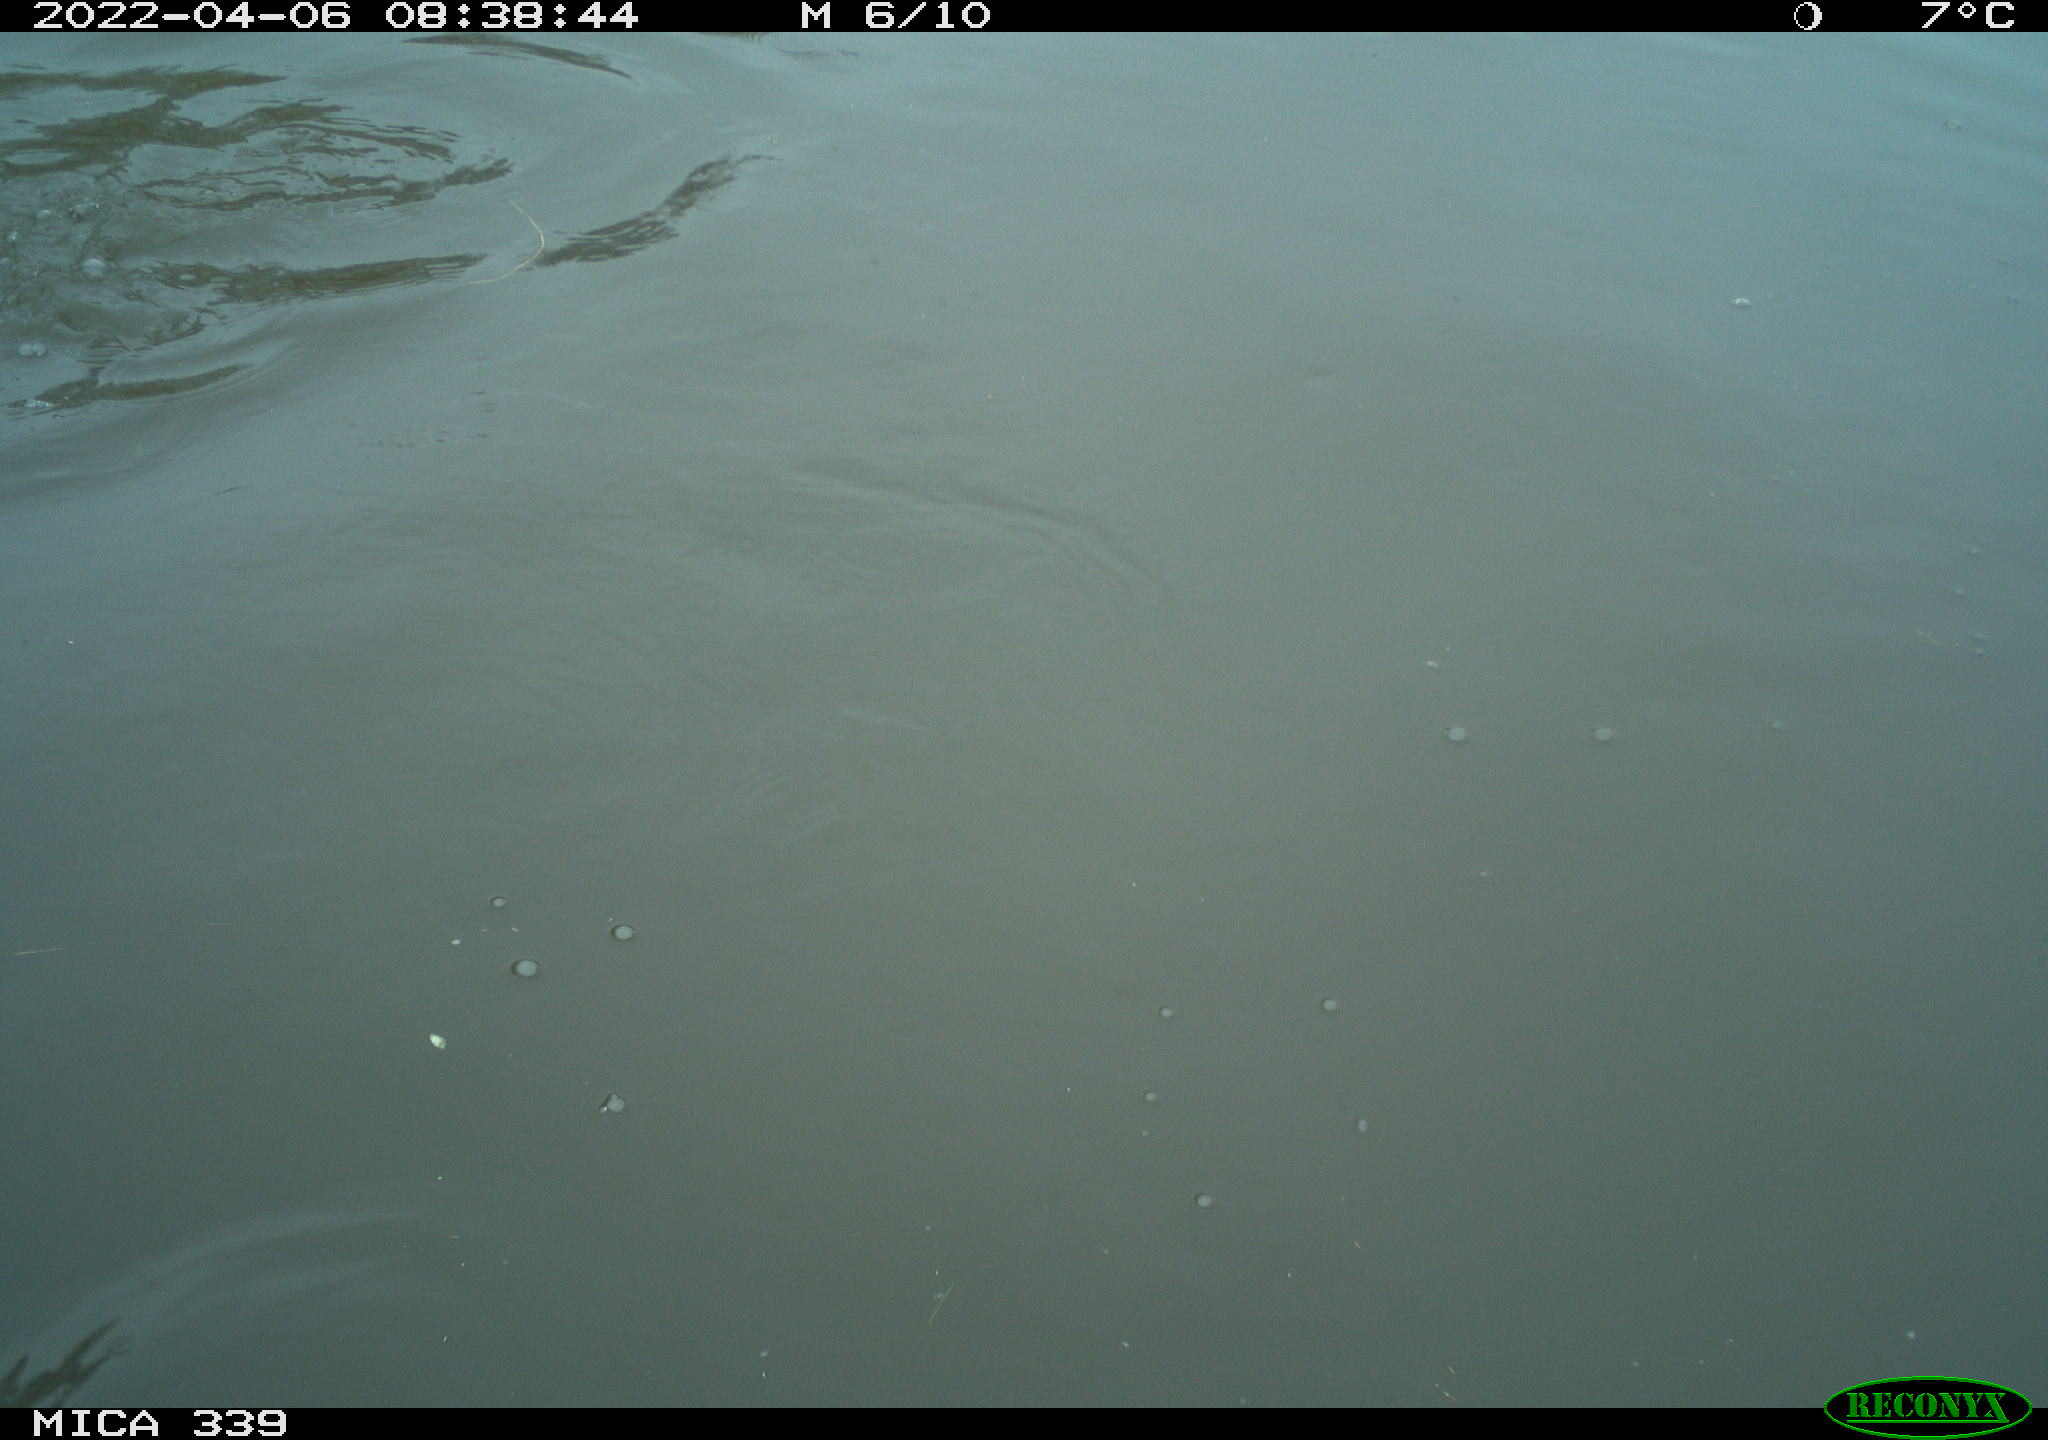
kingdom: Animalia
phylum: Chordata
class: Aves
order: Suliformes
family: Phalacrocoracidae
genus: Phalacrocorax
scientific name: Phalacrocorax carbo
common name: Great cormorant
